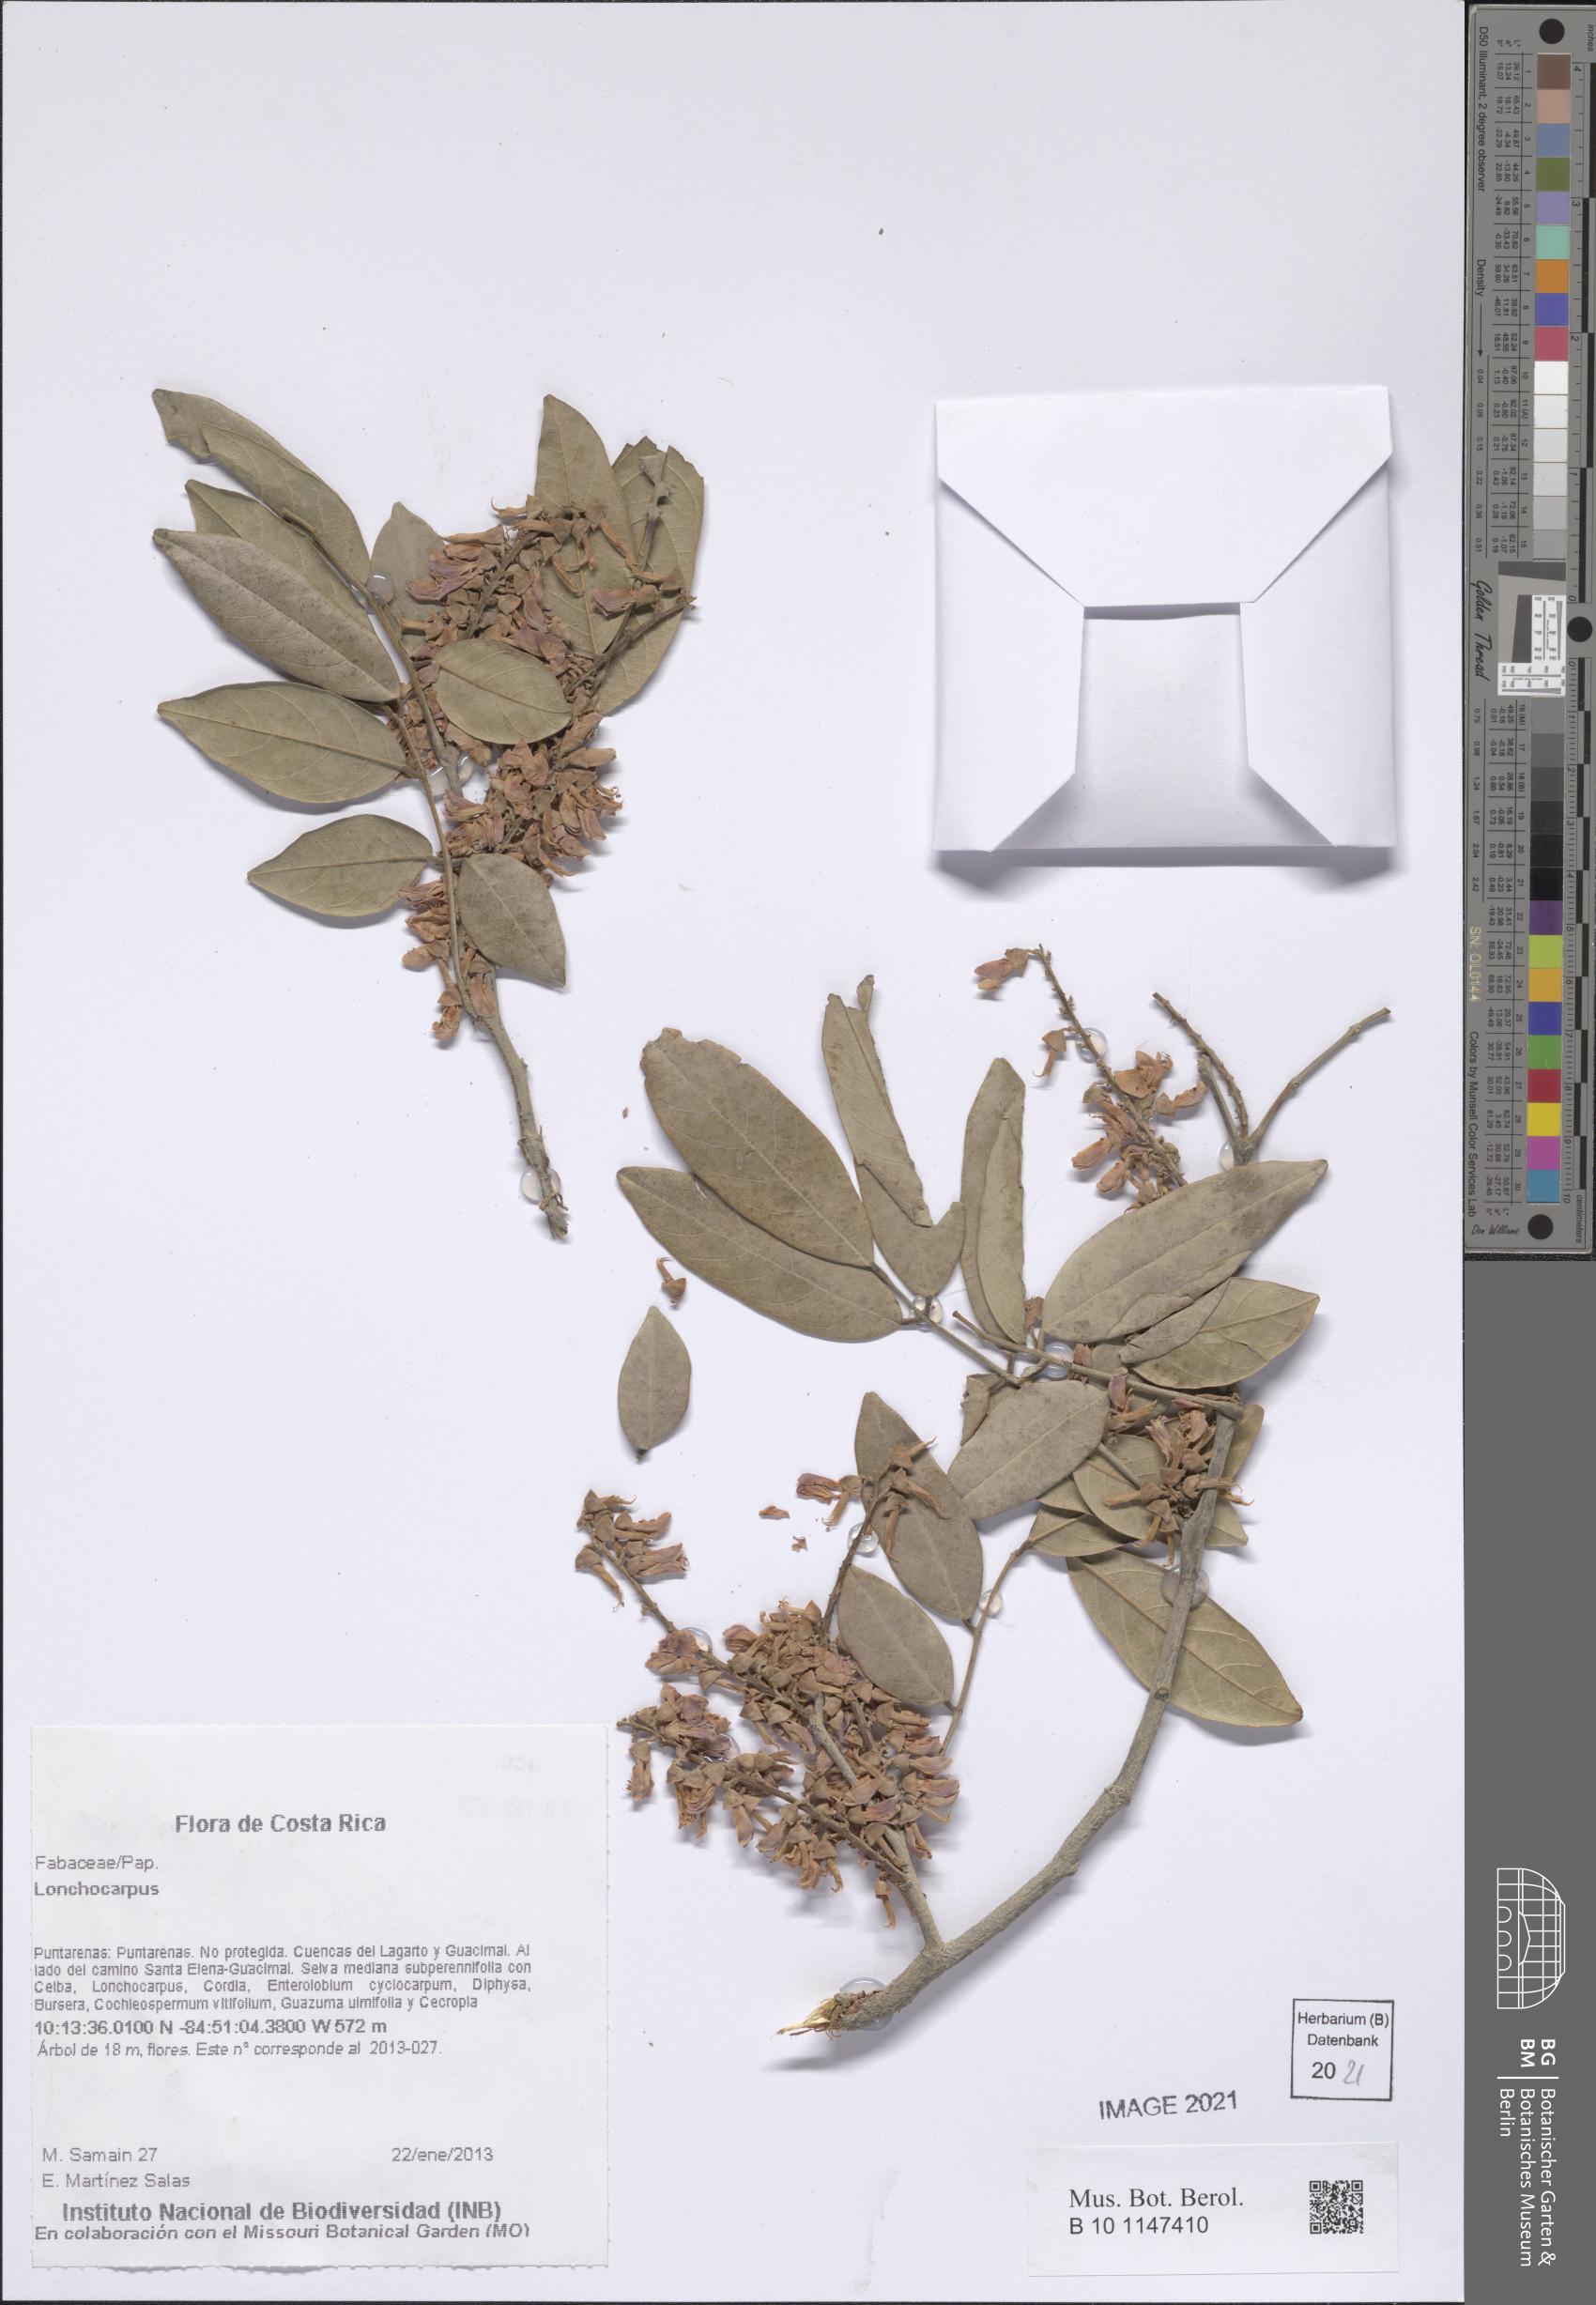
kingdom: Plantae
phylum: Tracheophyta
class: Magnoliopsida
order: Fabales
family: Fabaceae
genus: Lonchocarpus
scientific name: Lonchocarpus
